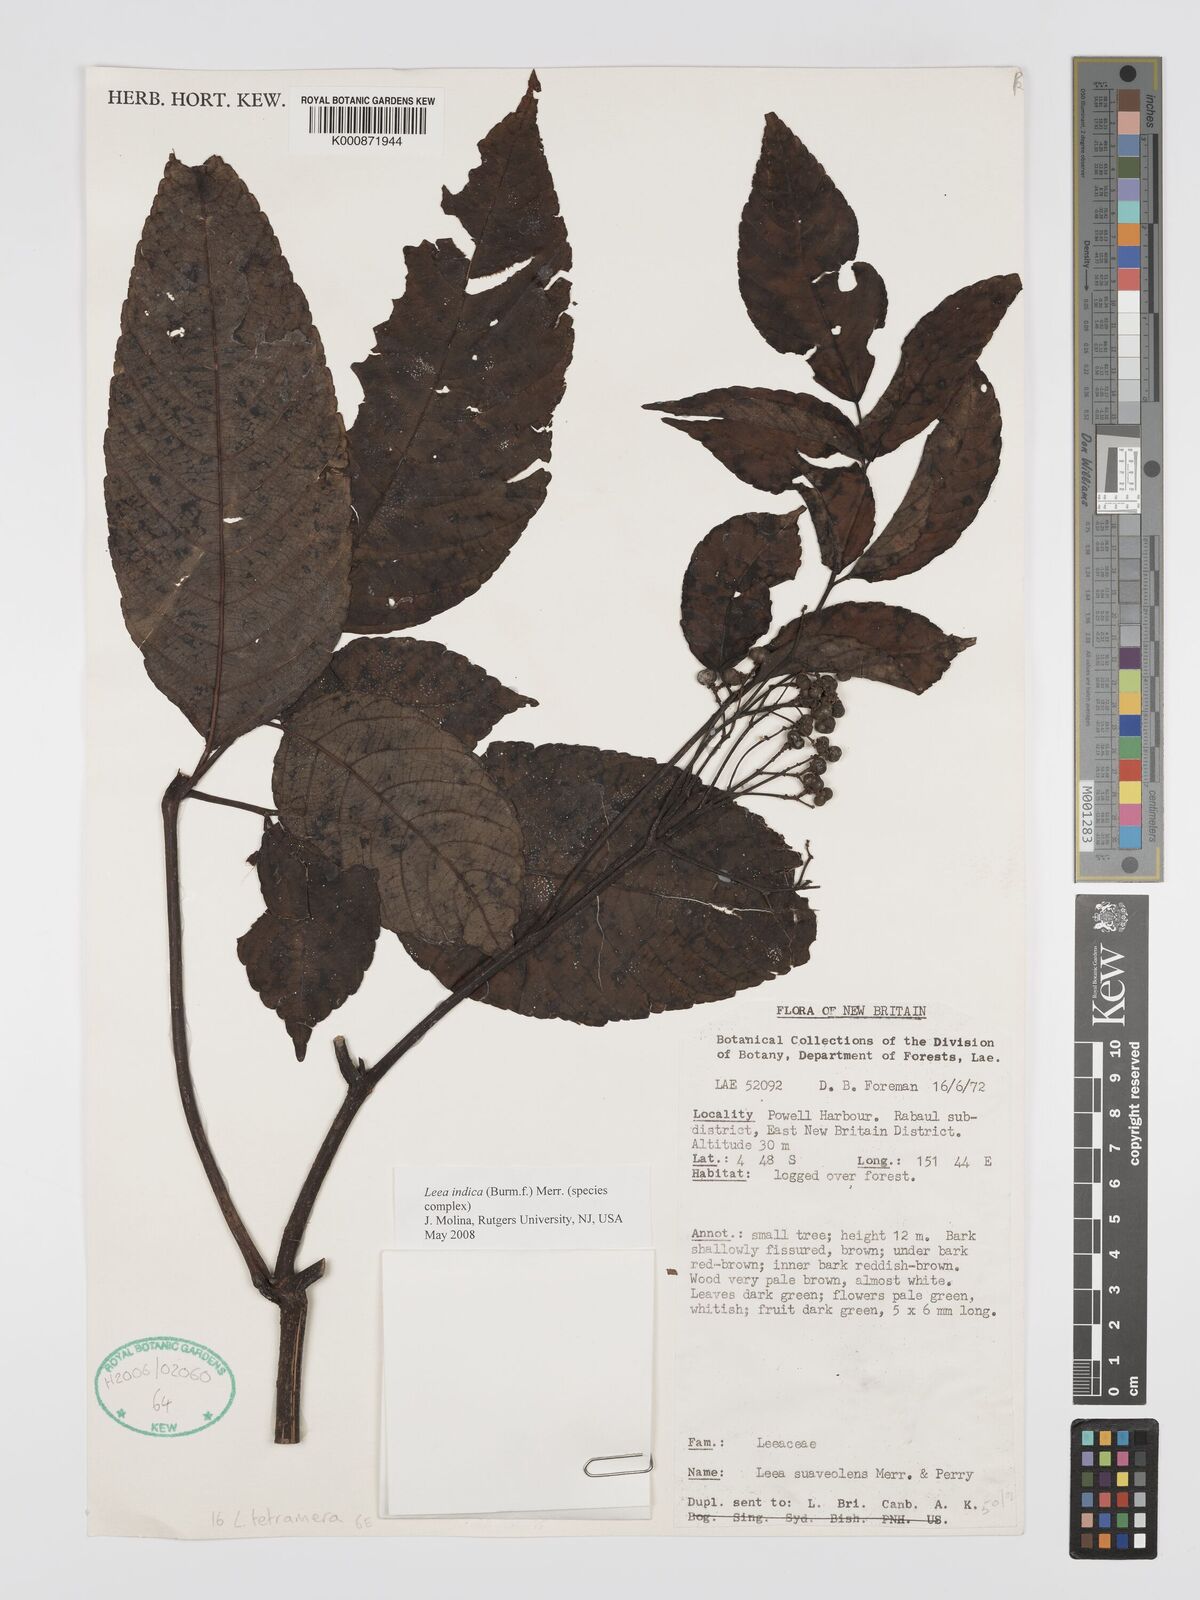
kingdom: Plantae
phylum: Tracheophyta
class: Magnoliopsida
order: Vitales
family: Vitaceae
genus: Leea
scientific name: Leea indica
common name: Bandicoot-berry
